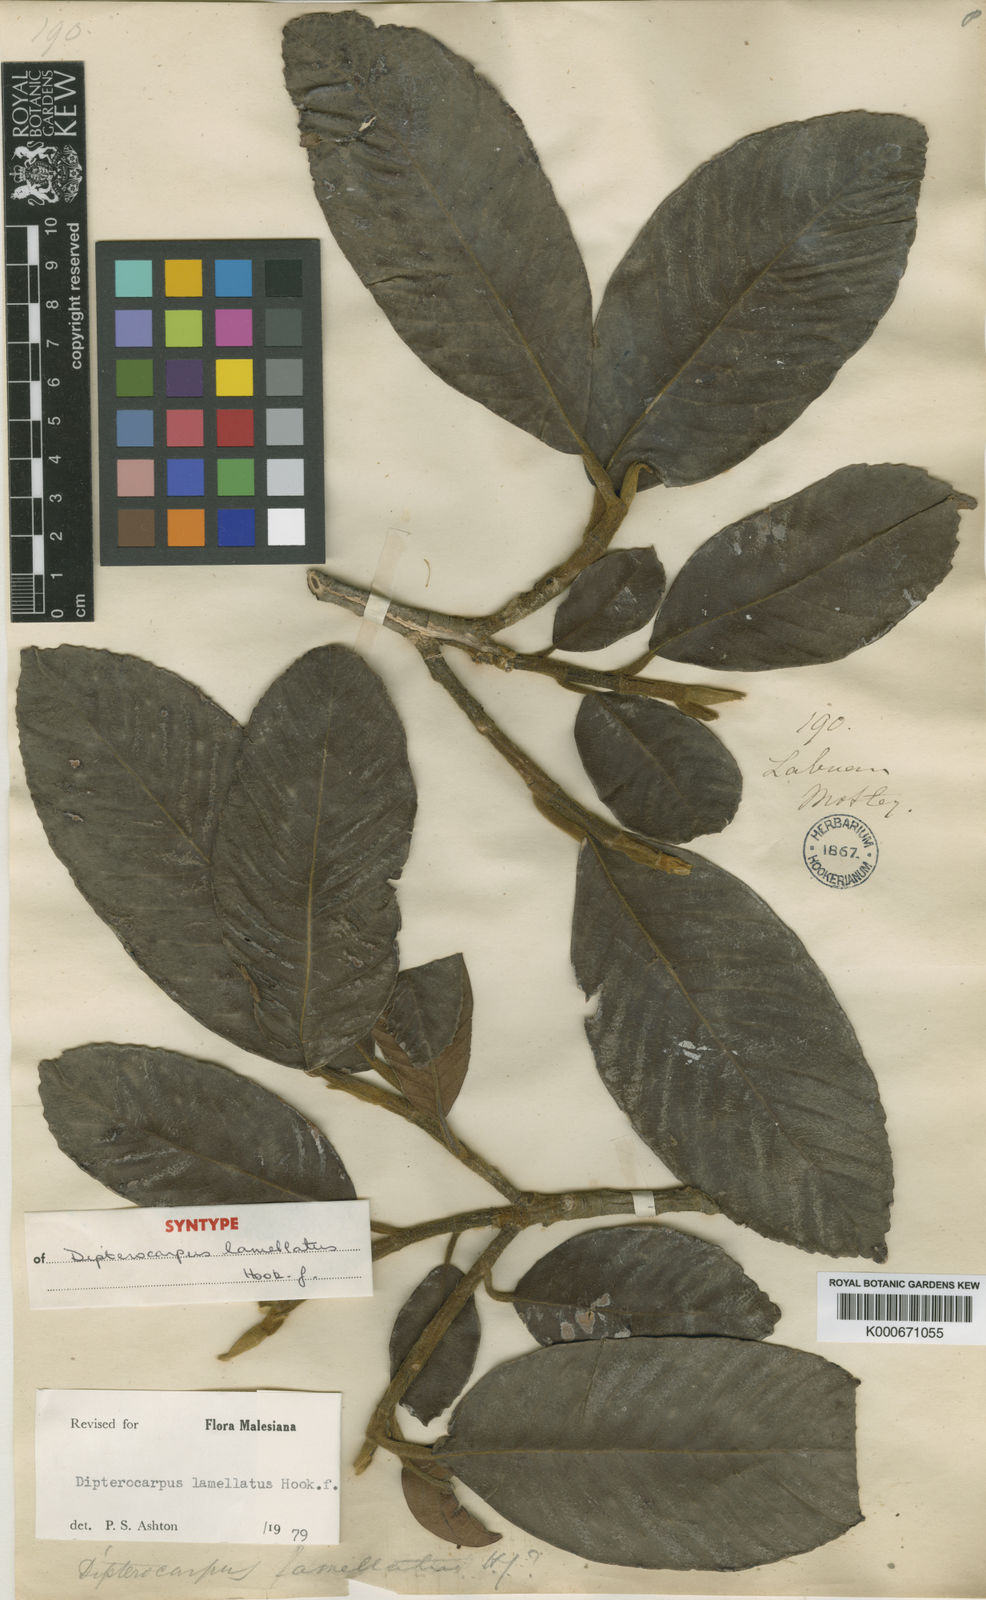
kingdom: Plantae
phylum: Tracheophyta
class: Magnoliopsida
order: Malvales
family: Dipterocarpaceae
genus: Dipterocarpus
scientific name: Dipterocarpus lamellatus
